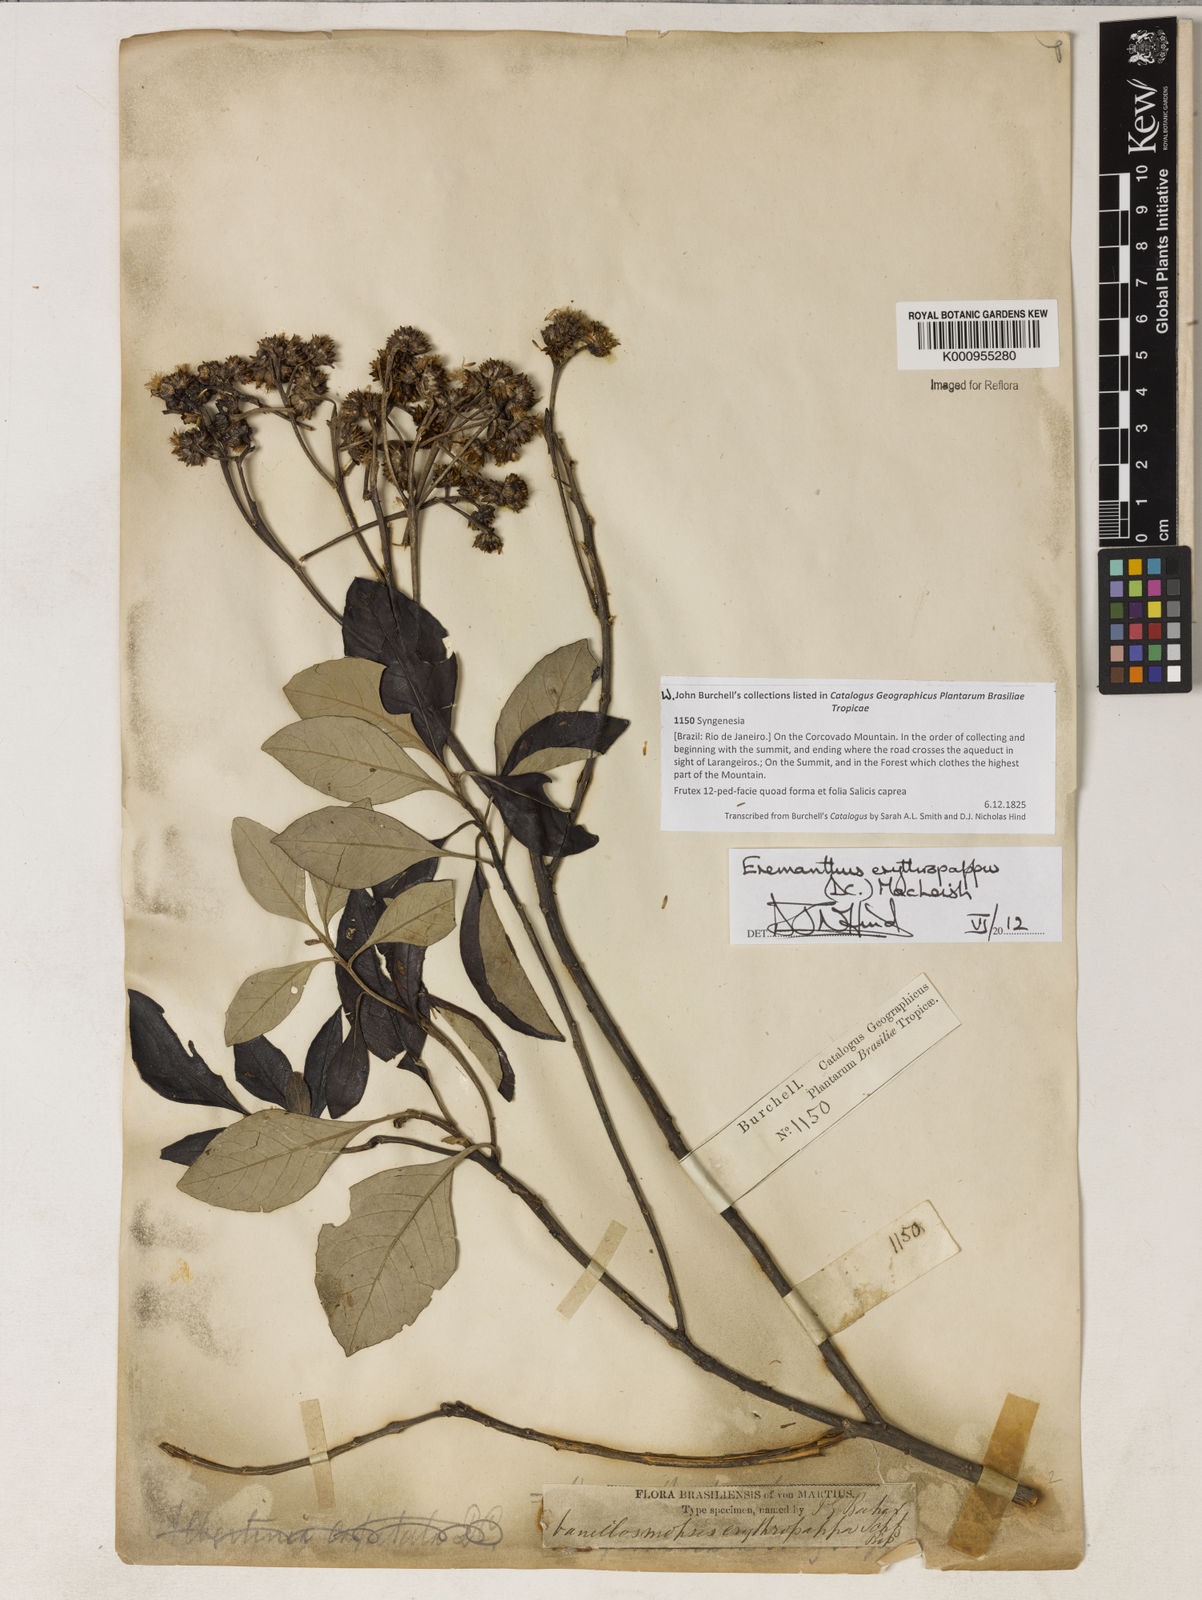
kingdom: Plantae
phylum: Tracheophyta
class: Magnoliopsida
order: Asterales
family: Asteraceae
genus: Eremanthus
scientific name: Eremanthus erythropappus
